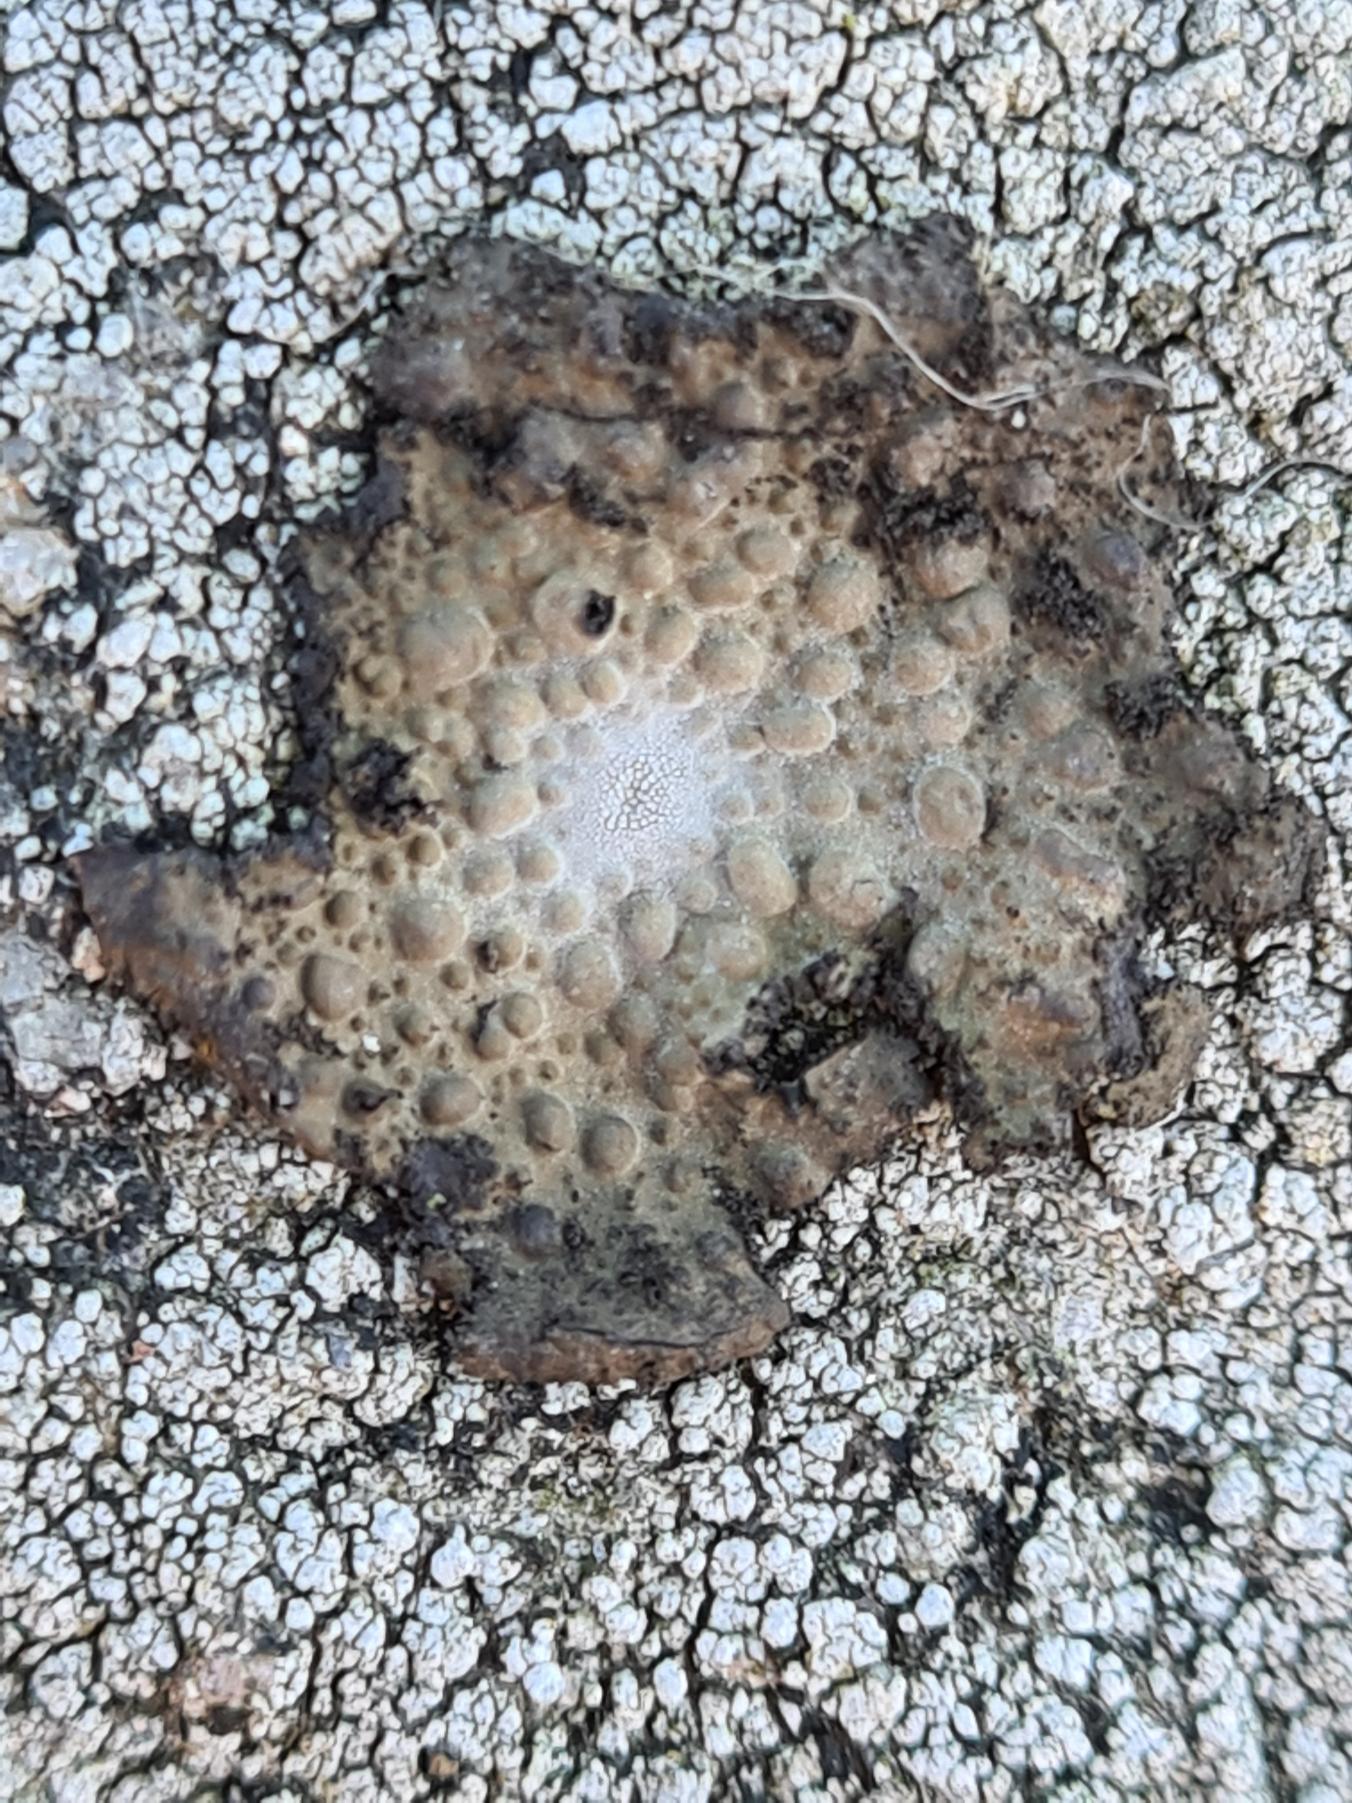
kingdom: Fungi
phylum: Ascomycota
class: Lecanoromycetes
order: Umbilicariales
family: Umbilicariaceae
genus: Lasallia
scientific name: Lasallia pustulata
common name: Buklet navlelav
